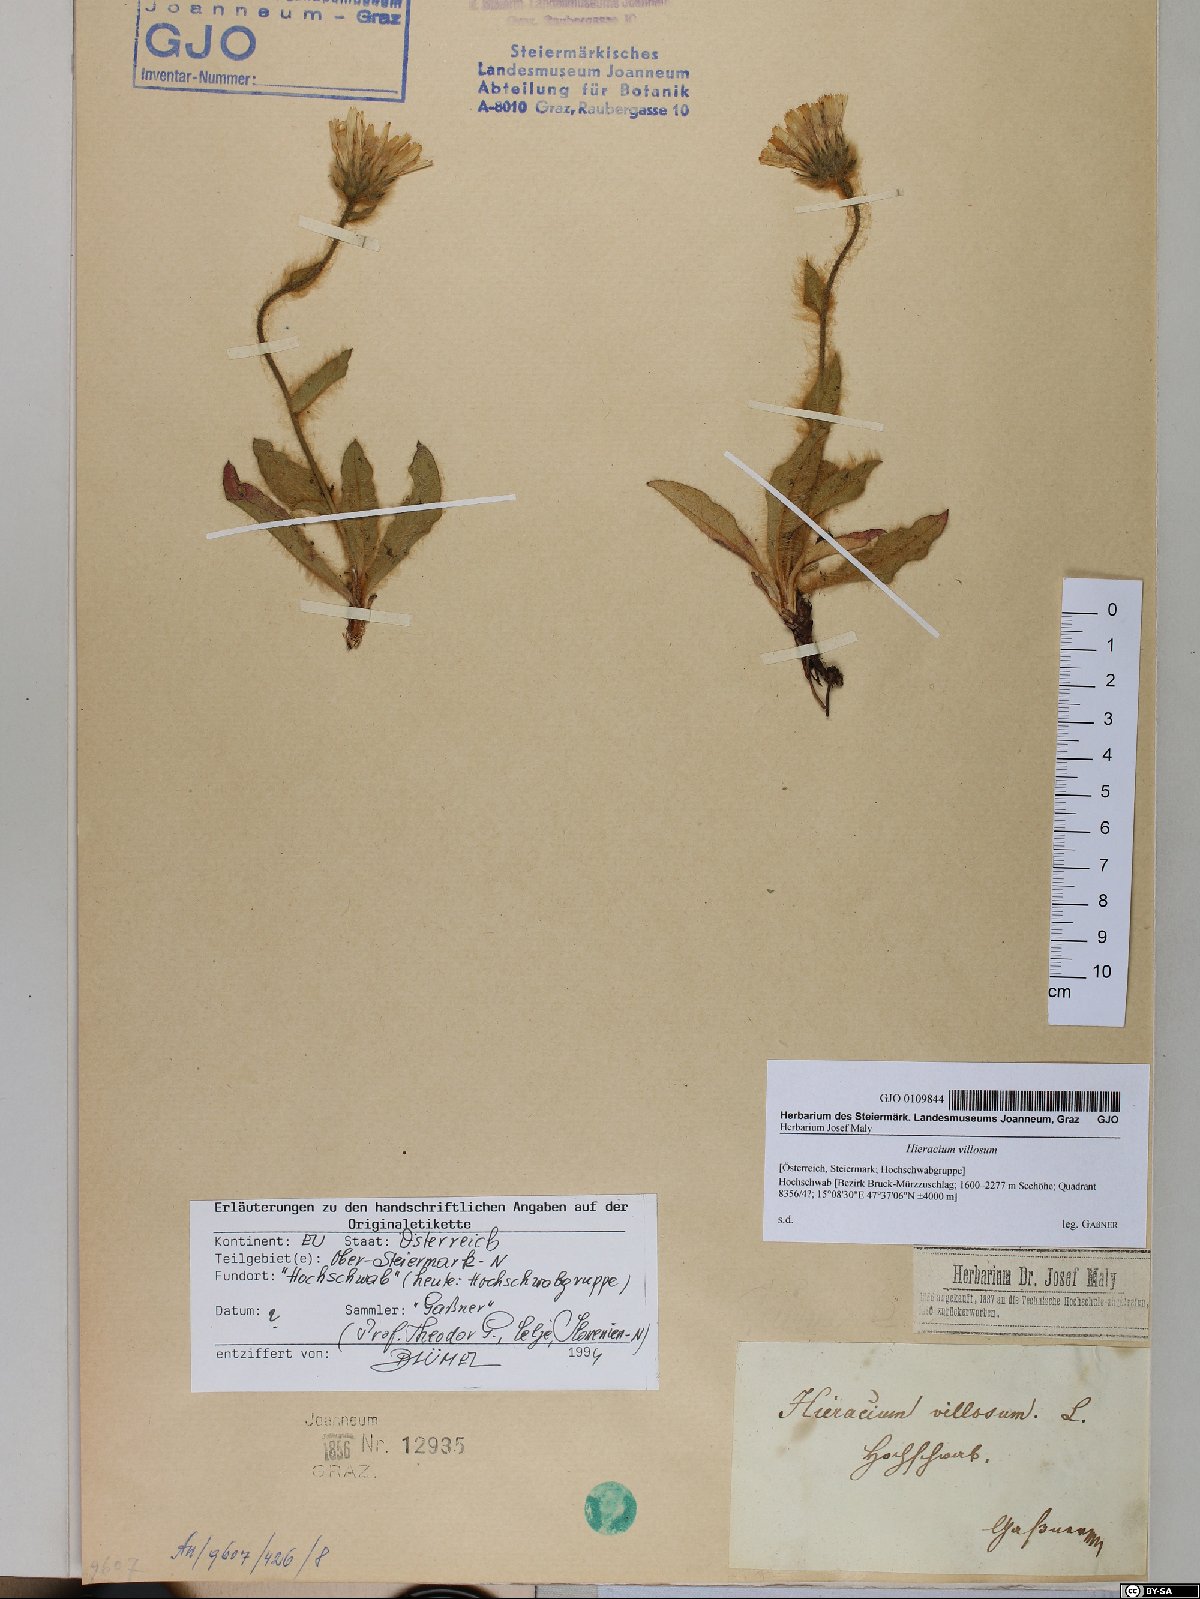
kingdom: Plantae
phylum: Tracheophyta
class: Magnoliopsida
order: Asterales
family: Asteraceae
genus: Hieracium
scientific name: Hieracium villosum
